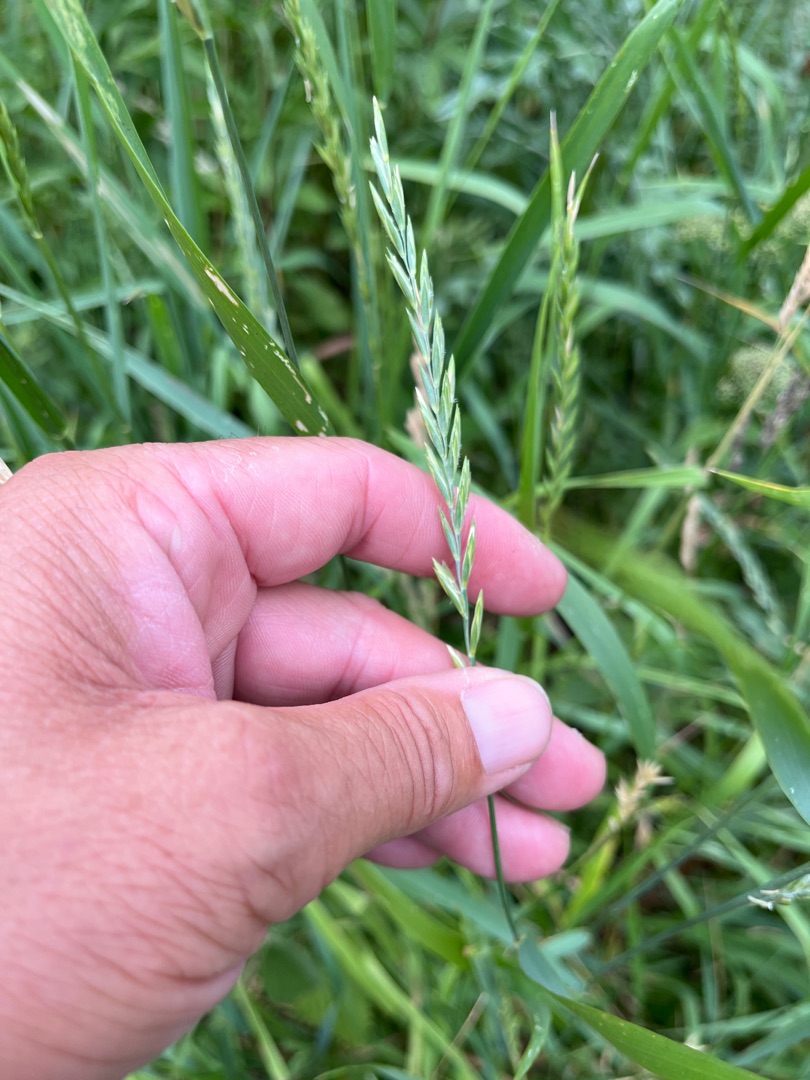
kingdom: Plantae
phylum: Tracheophyta
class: Liliopsida
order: Poales
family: Poaceae
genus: Elymus
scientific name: Elymus repens
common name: Almindelig kvik
